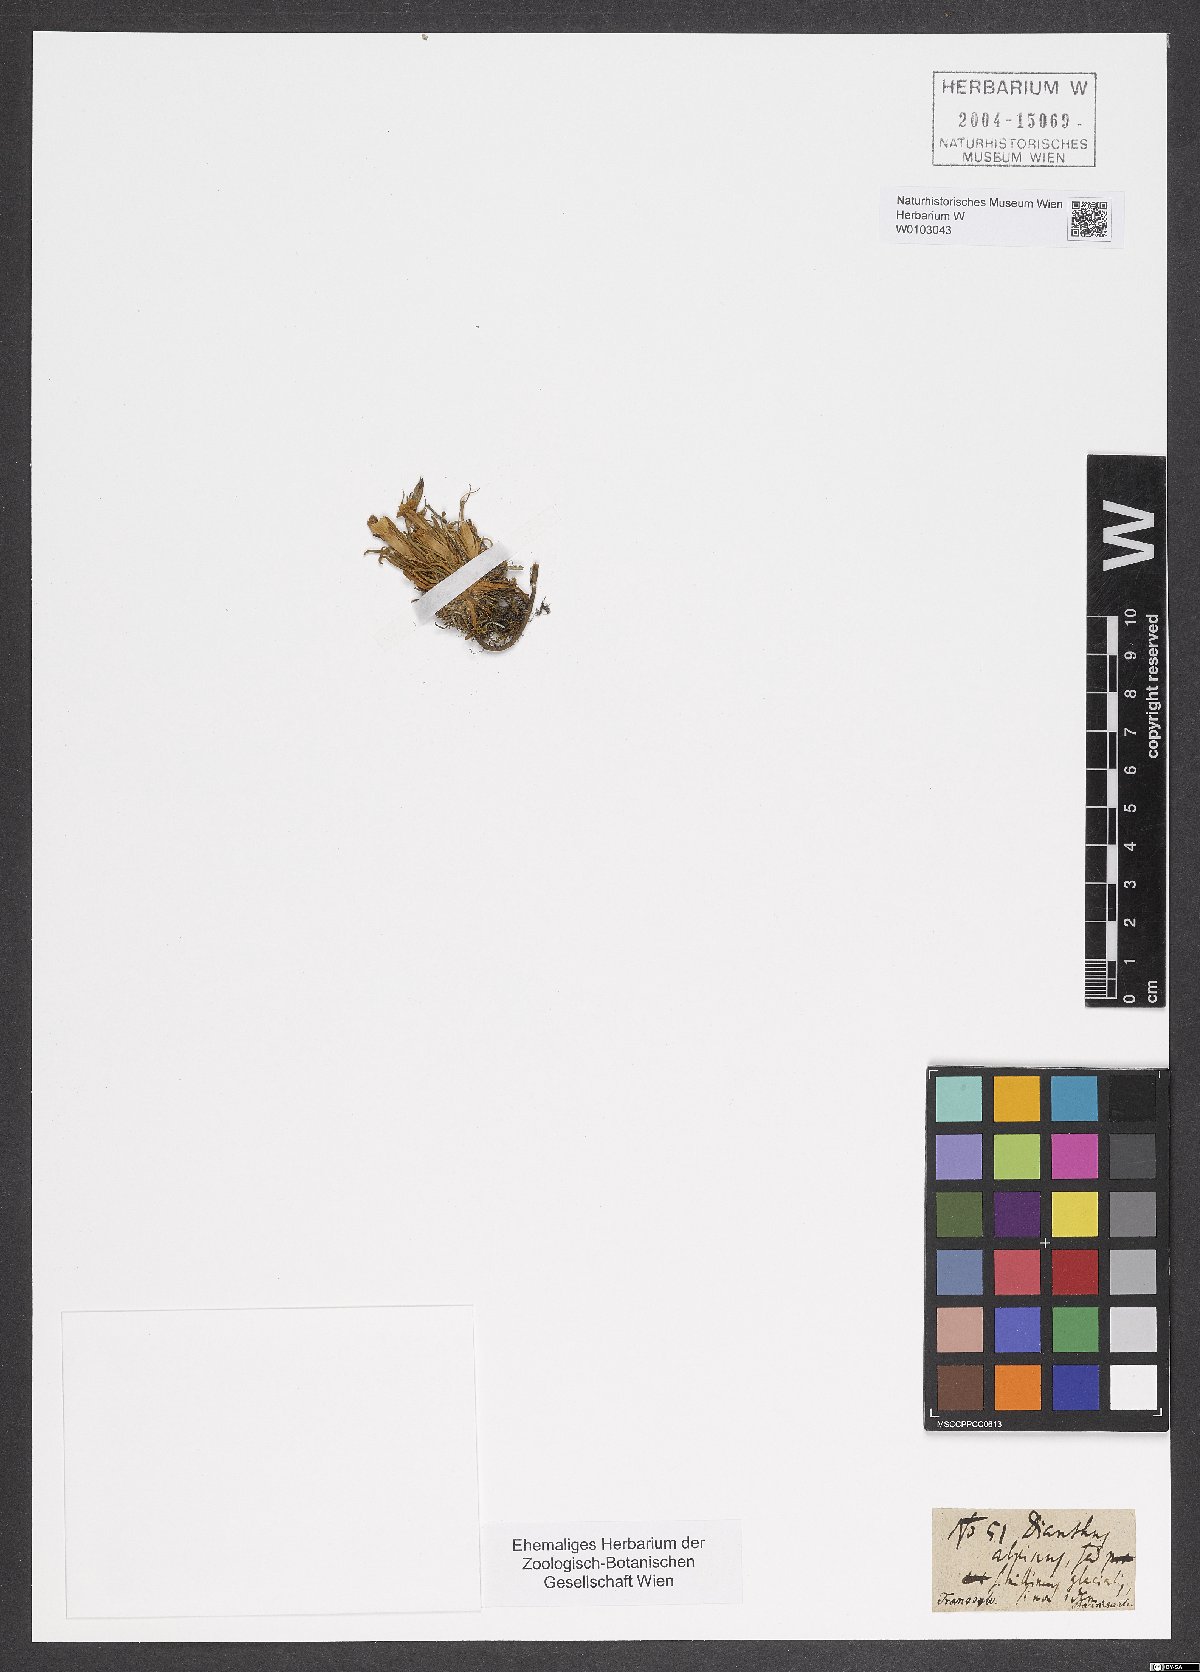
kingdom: Plantae
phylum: Tracheophyta
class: Magnoliopsida
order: Caryophyllales
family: Caryophyllaceae
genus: Dianthus
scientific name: Dianthus alpinus
